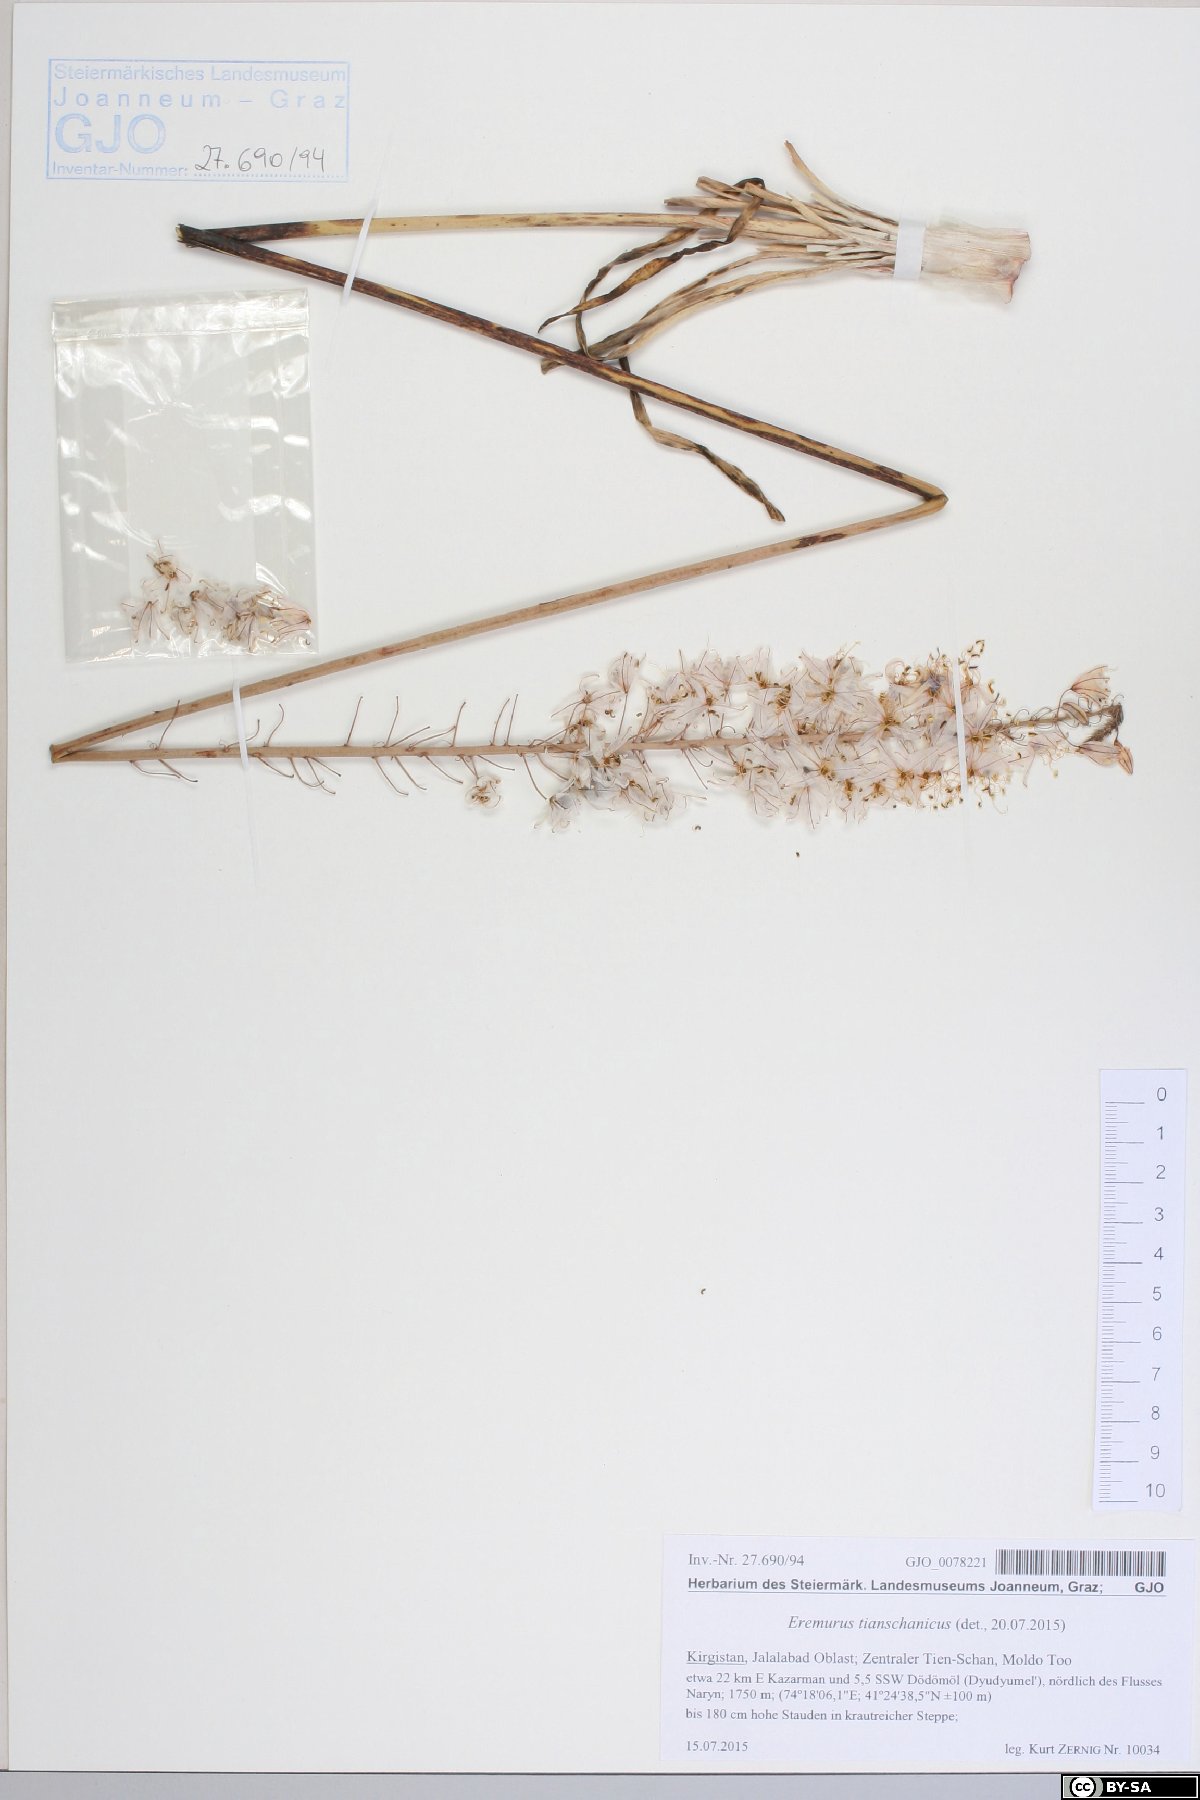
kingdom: Plantae
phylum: Tracheophyta
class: Liliopsida
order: Asparagales
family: Asphodelaceae
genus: Eremurus
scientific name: Eremurus tianschanicus
